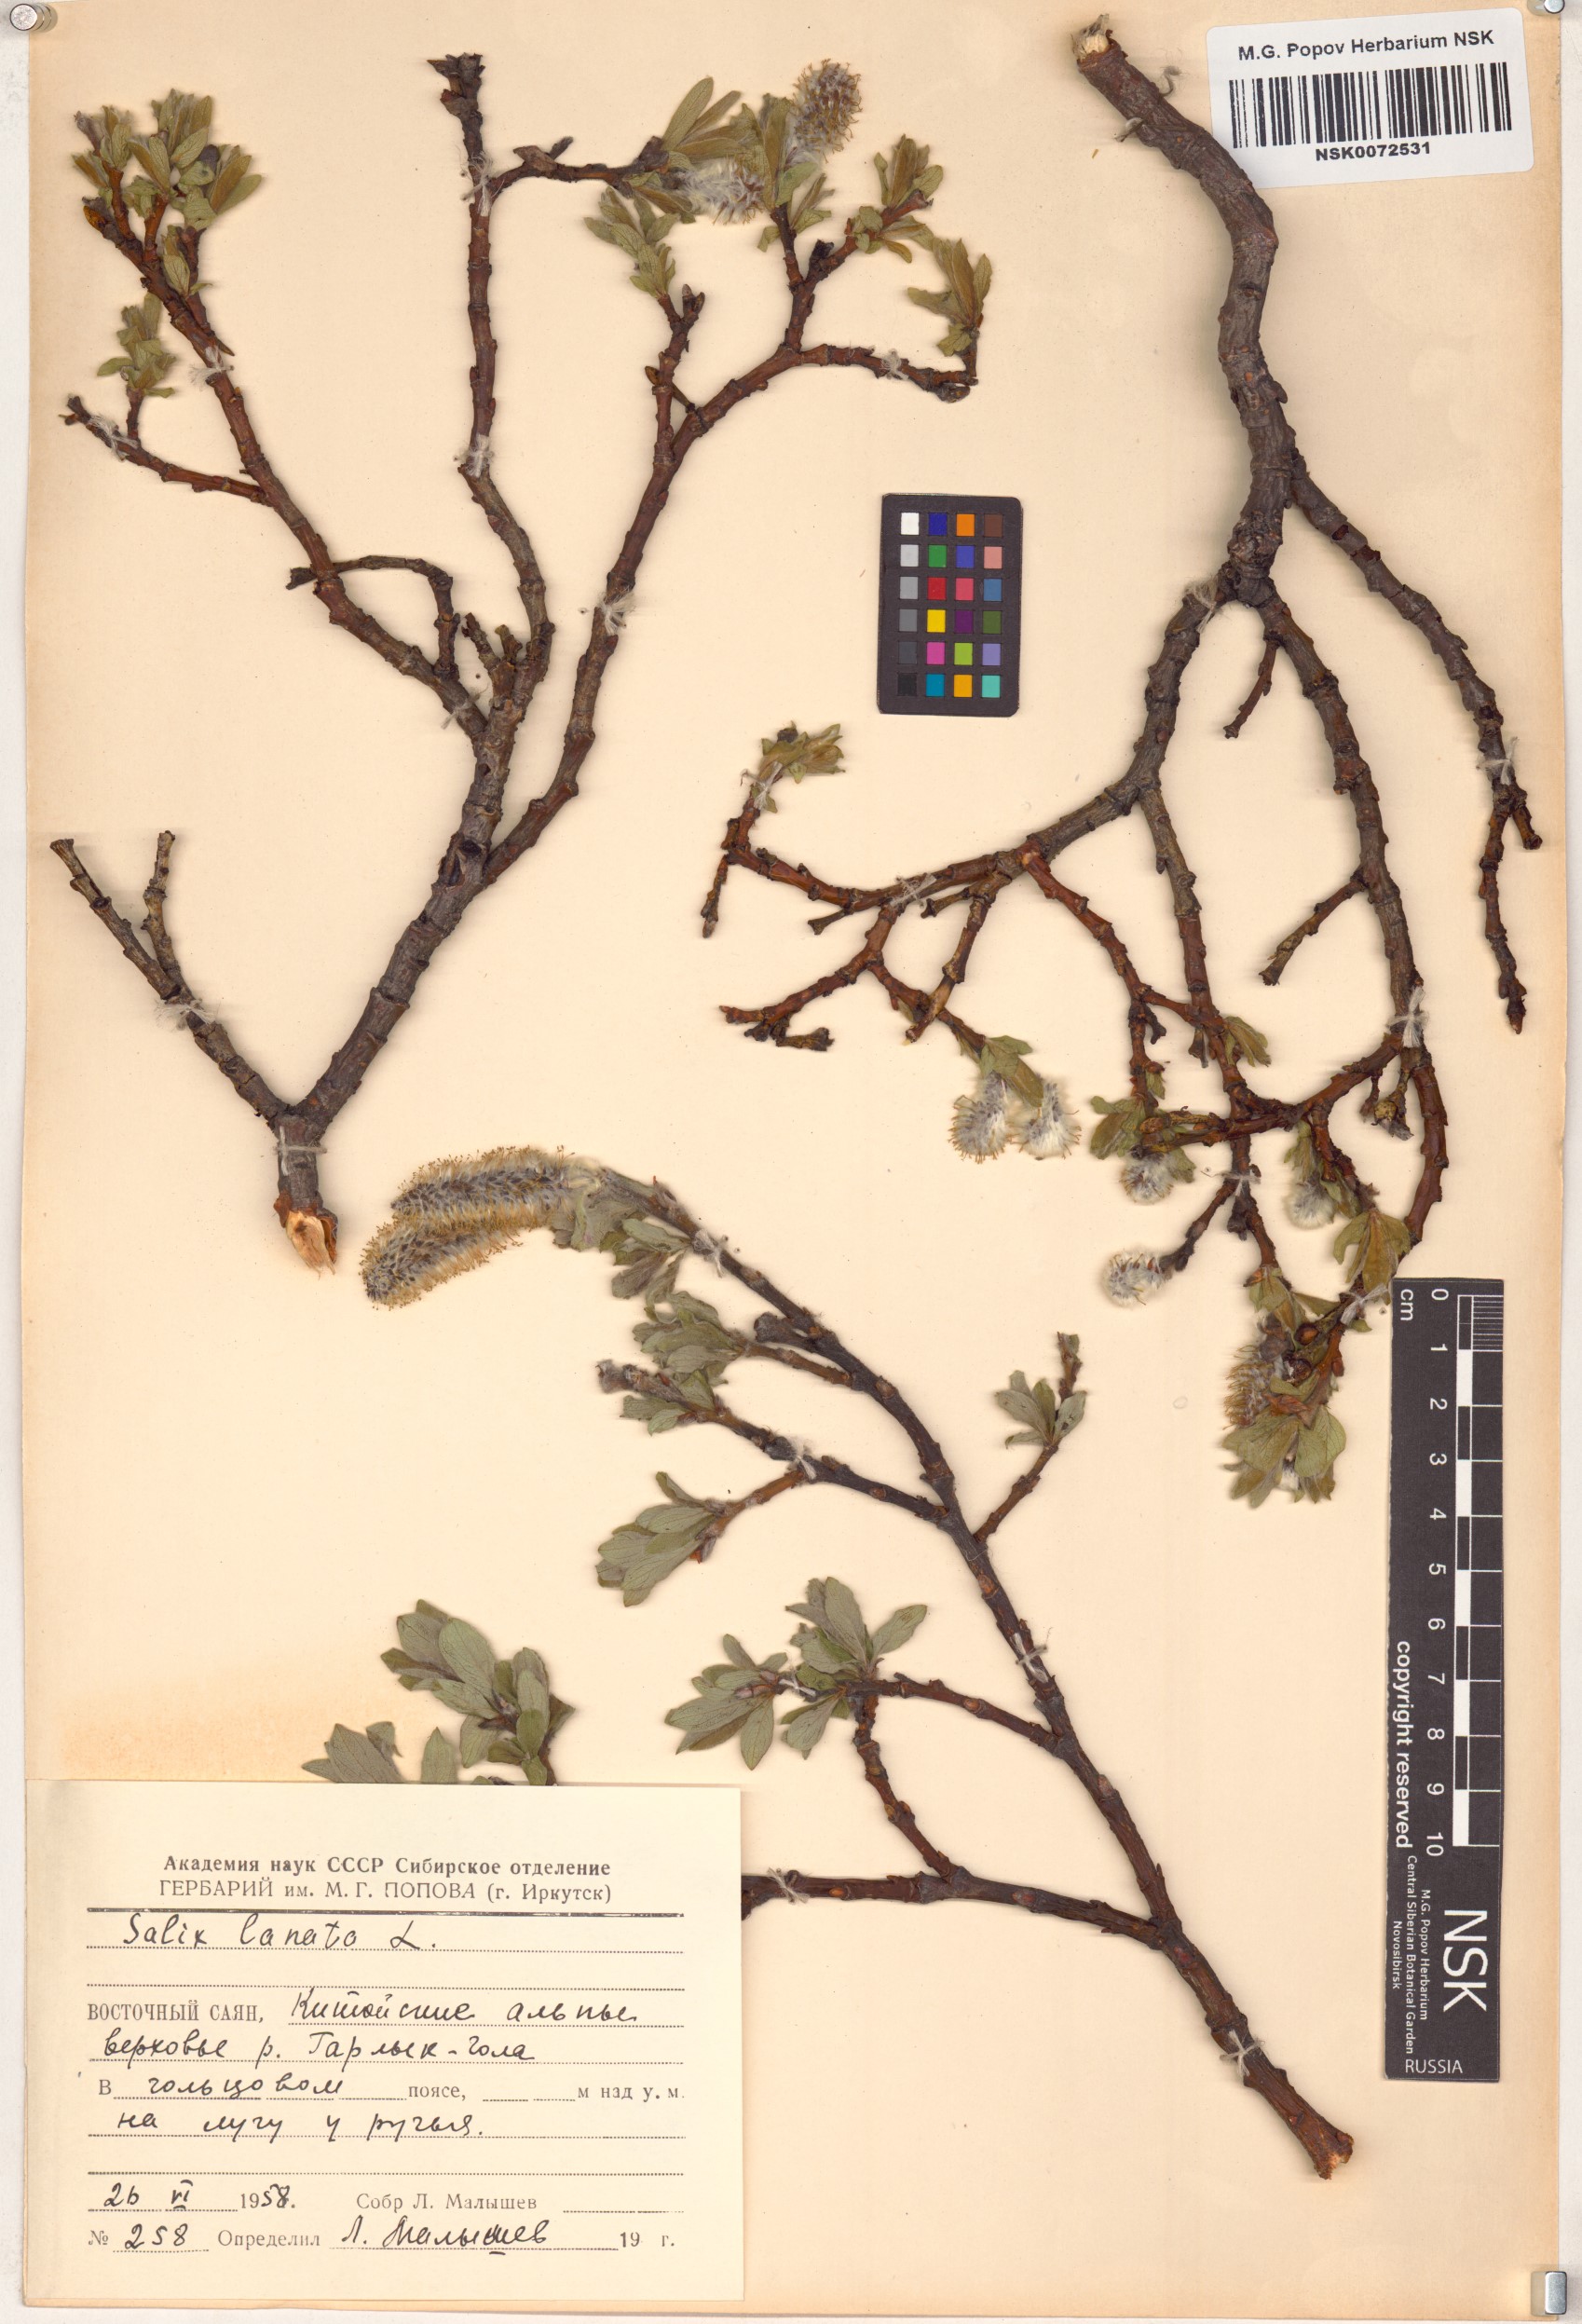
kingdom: Plantae
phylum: Tracheophyta
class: Magnoliopsida
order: Malpighiales
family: Salicaceae
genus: Salix
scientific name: Salix lanata
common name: Woolly willow
